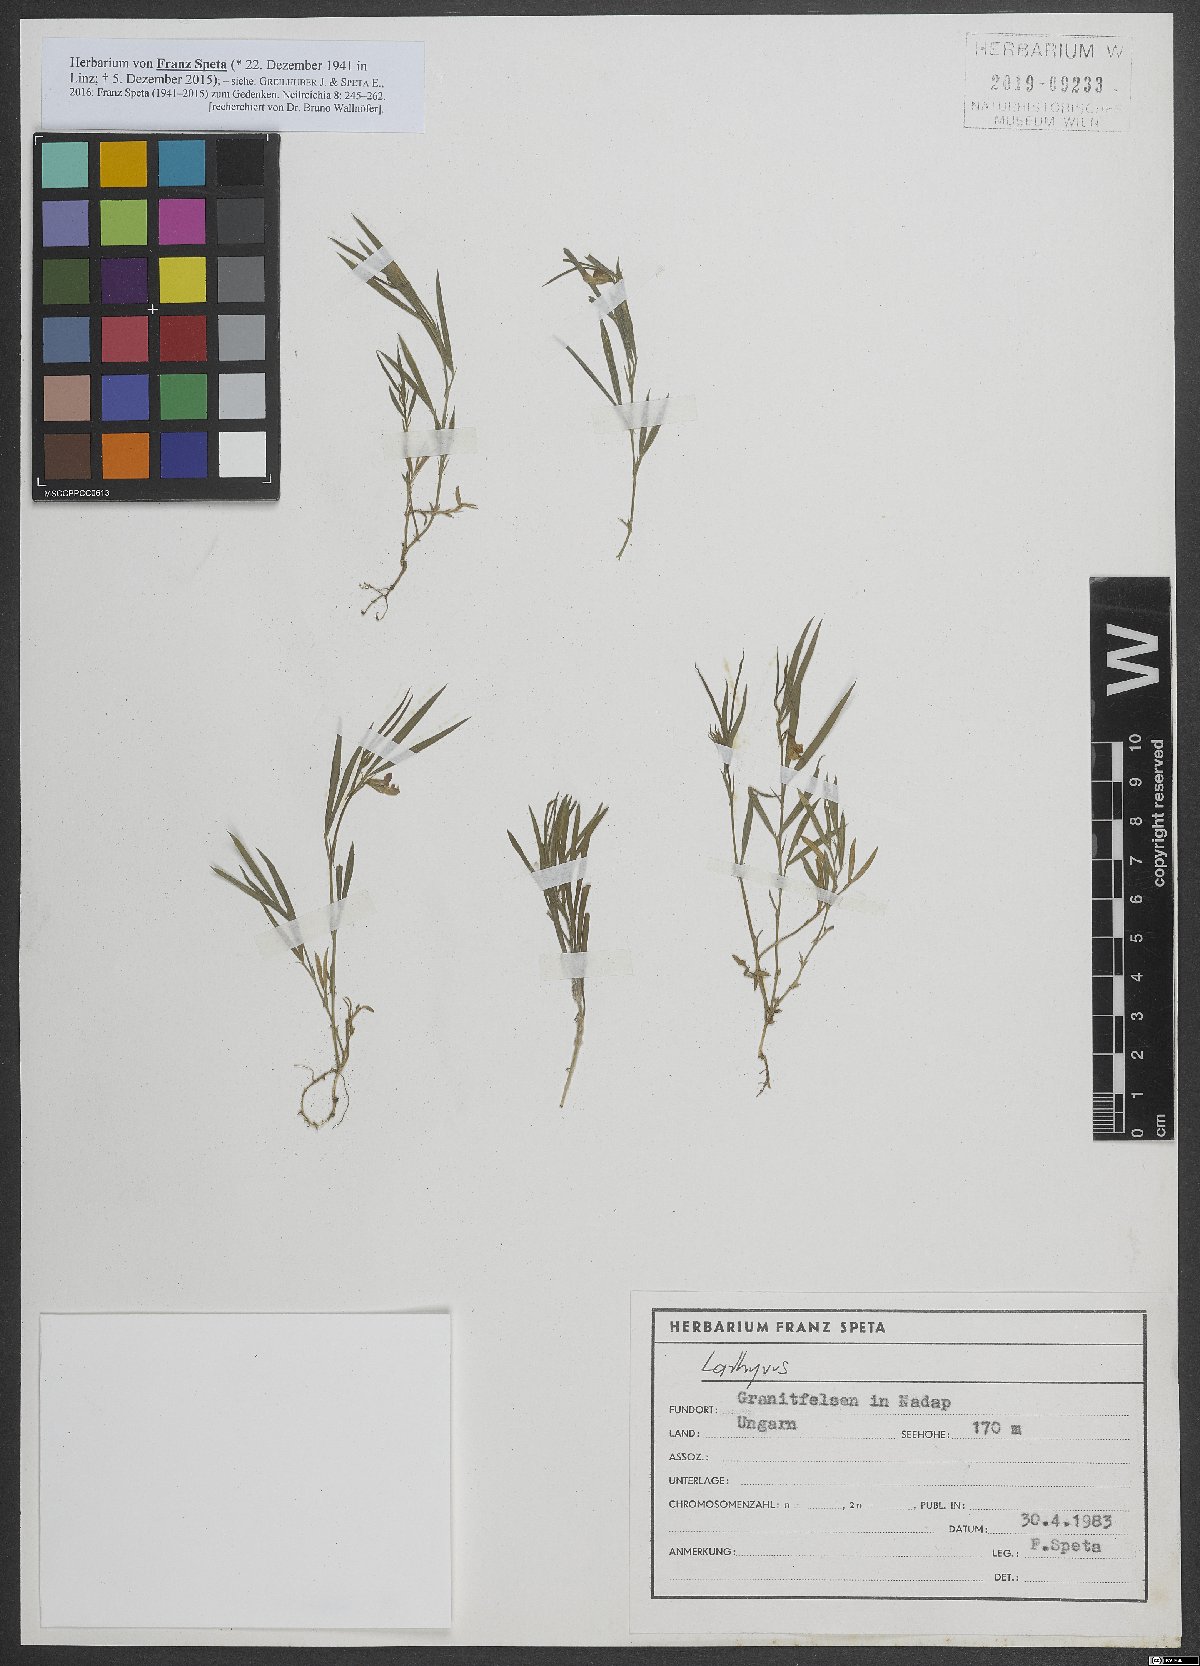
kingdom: Plantae
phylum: Tracheophyta
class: Magnoliopsida
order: Fabales
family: Fabaceae
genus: Lathyrus
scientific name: Lathyrus
